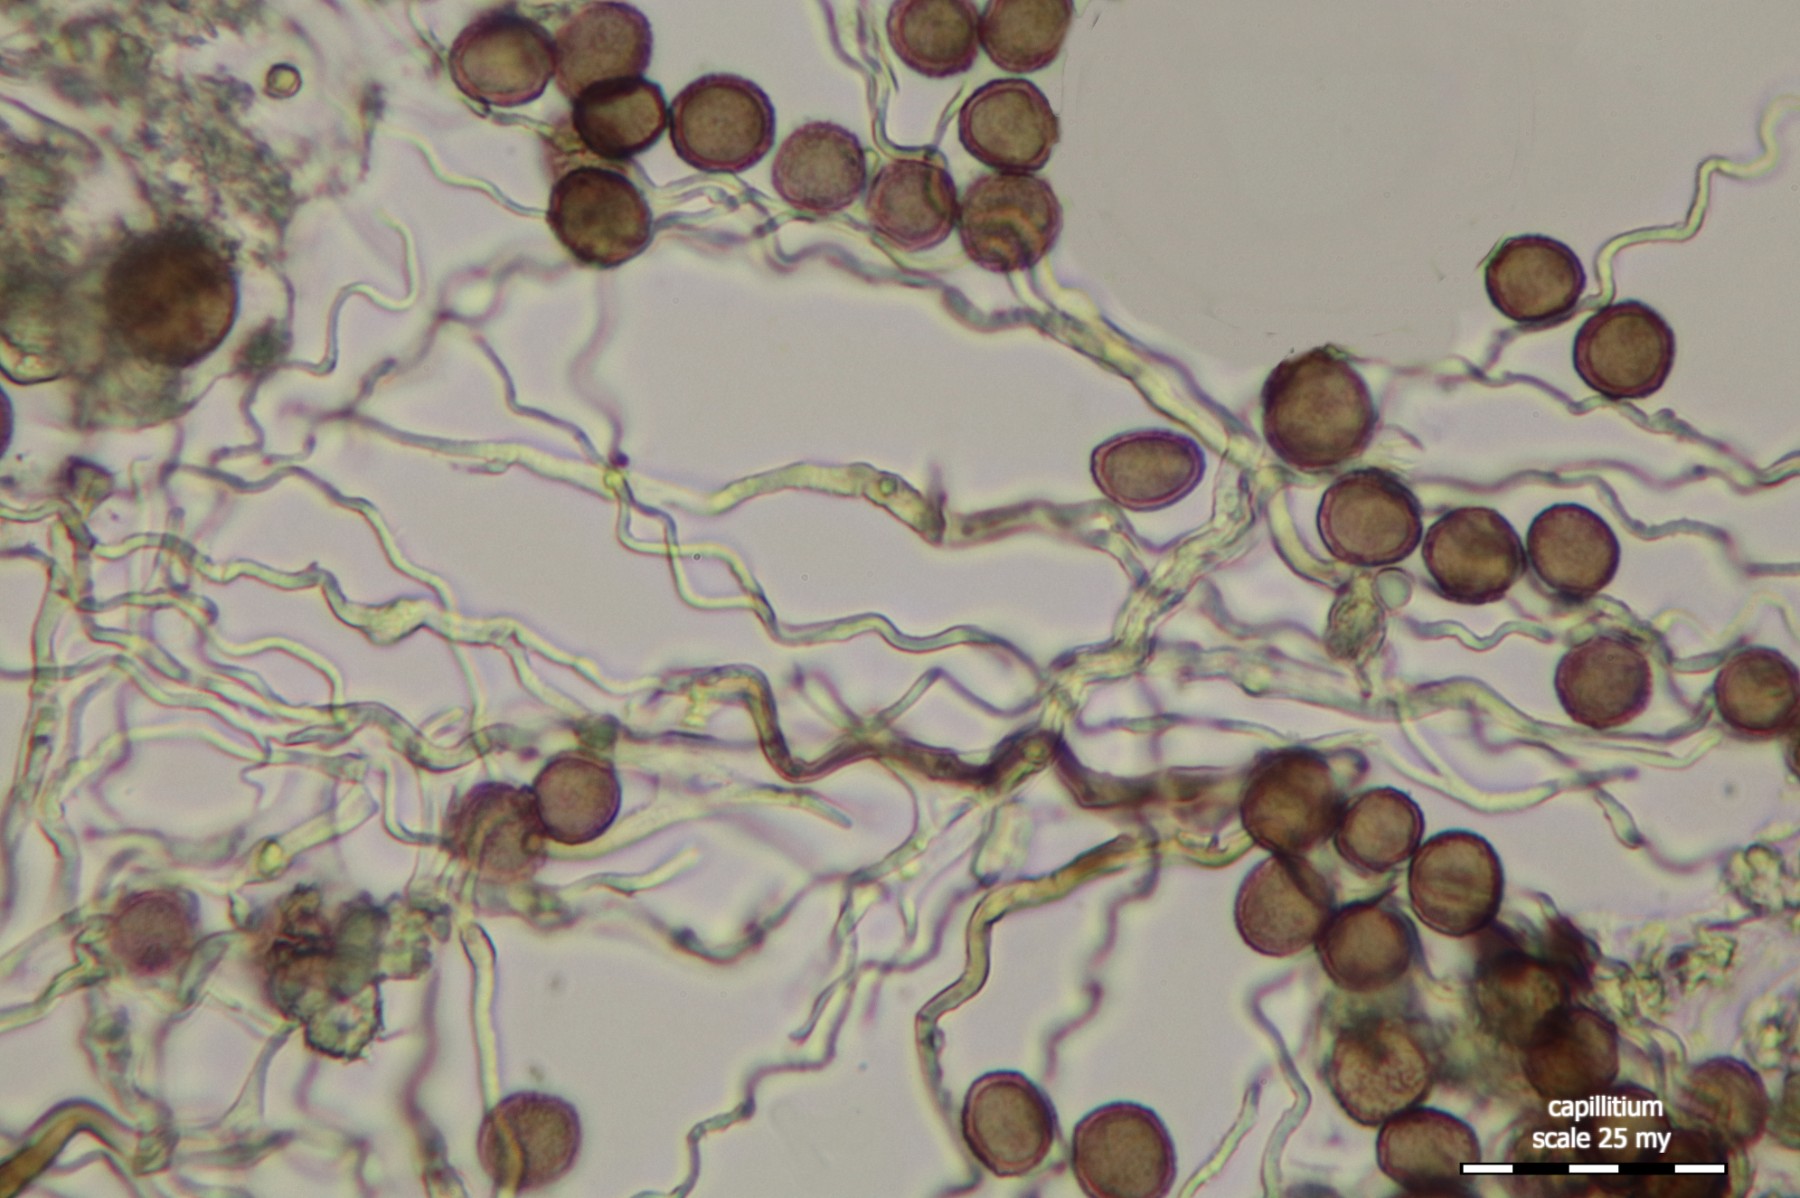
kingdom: Protozoa
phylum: Mycetozoa
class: Myxomycetes
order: Physarales
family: Didymiaceae
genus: Didymium
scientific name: Didymium squamulosum
